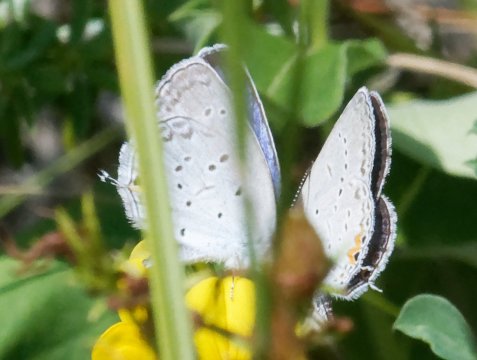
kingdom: Animalia
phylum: Arthropoda
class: Insecta
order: Lepidoptera
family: Lycaenidae
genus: Elkalyce
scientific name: Elkalyce comyntas
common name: Eastern Tailed-Blue
